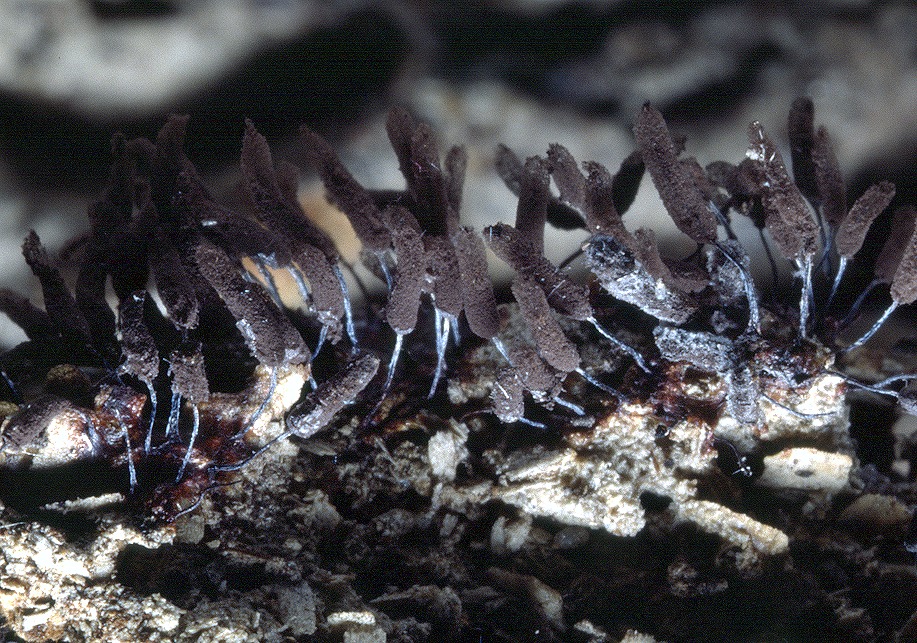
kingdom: Protozoa
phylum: Mycetozoa
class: Myxomycetes
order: Stemonitidales
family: Stemonitidaceae
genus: Stemonitopsis
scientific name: Stemonitopsis typhina
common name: skinnende støvkølle
